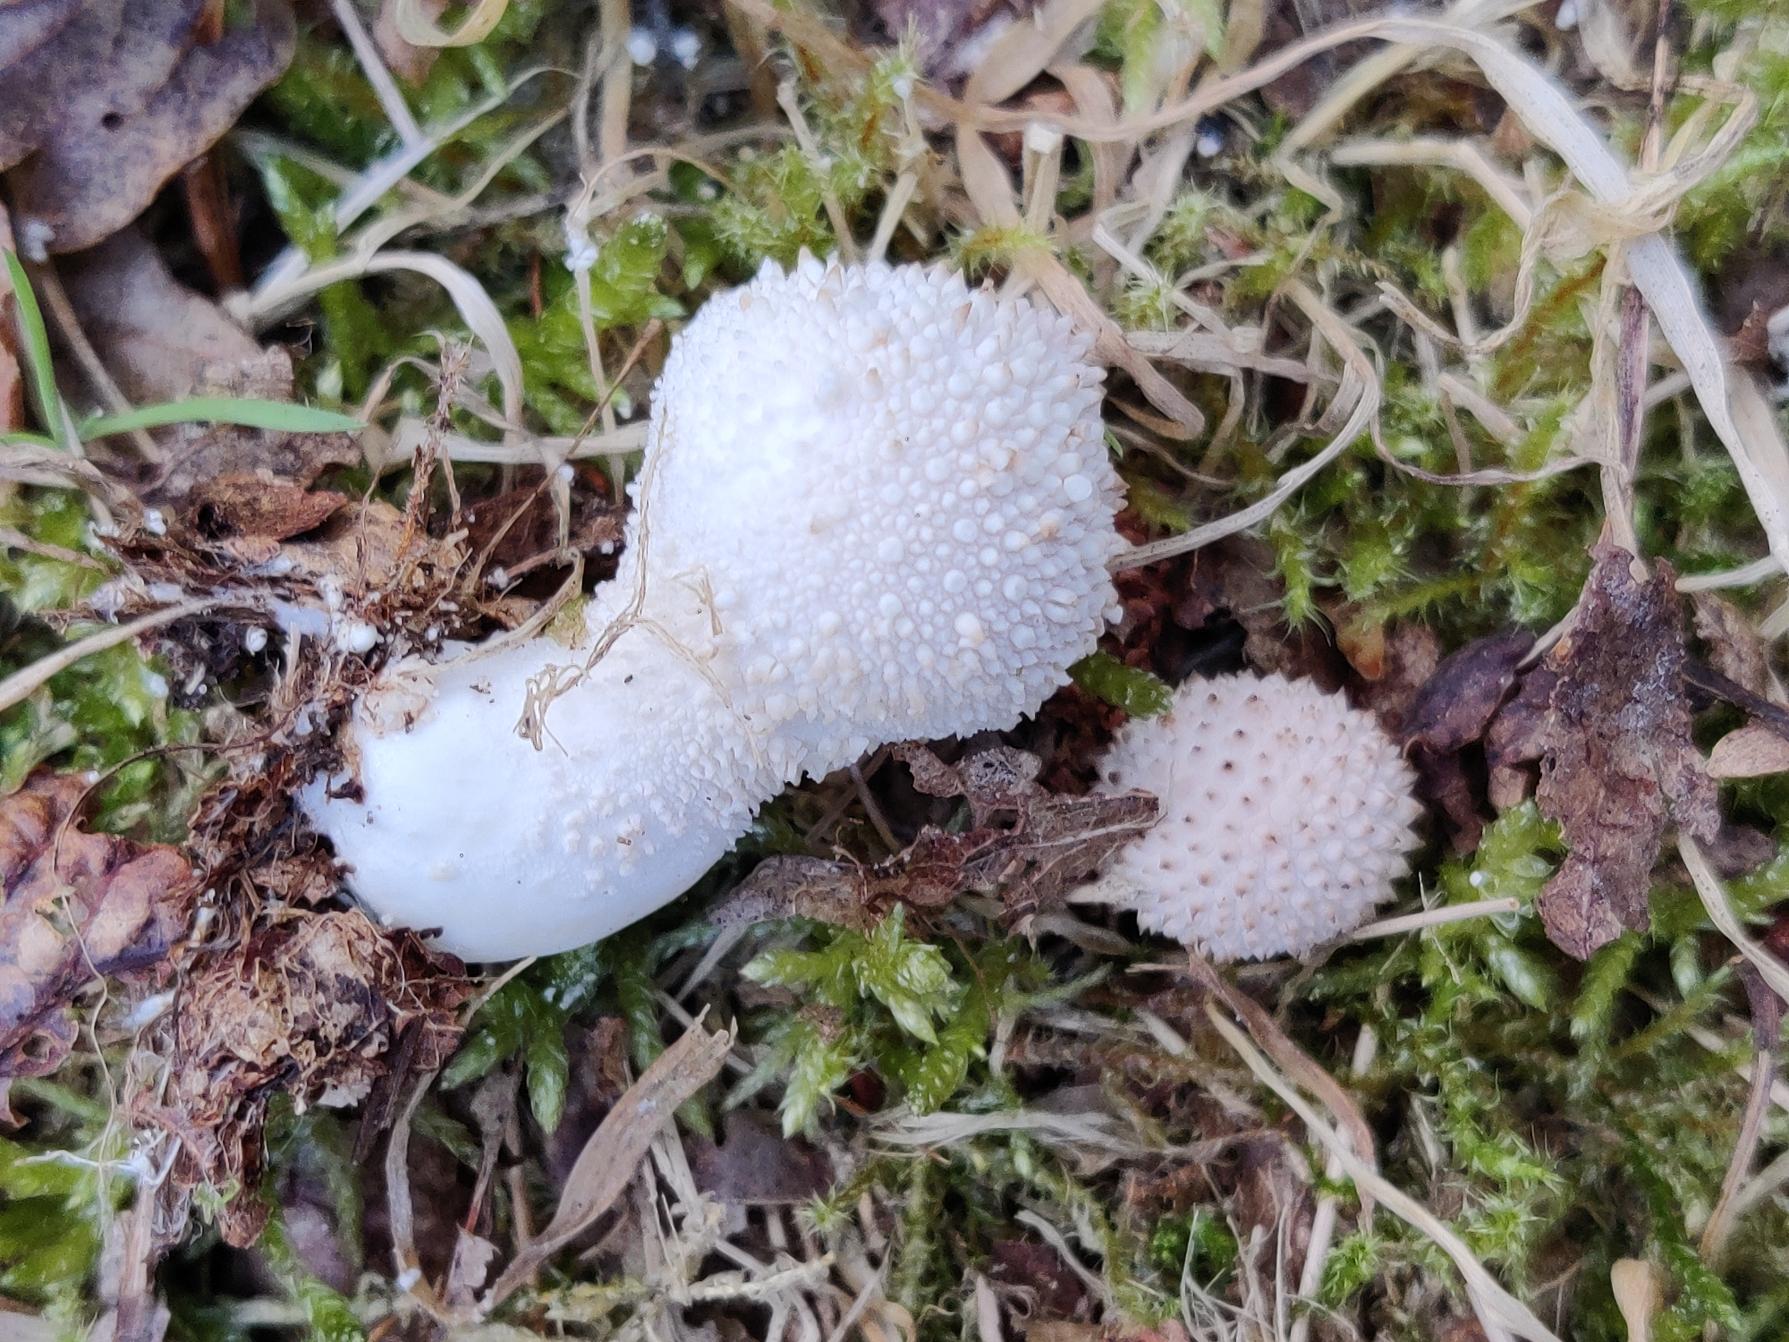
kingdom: Fungi
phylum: Basidiomycota
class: Agaricomycetes
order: Agaricales
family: Lycoperdaceae
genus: Lycoperdon
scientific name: Lycoperdon perlatum
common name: Krystal-støvbold
